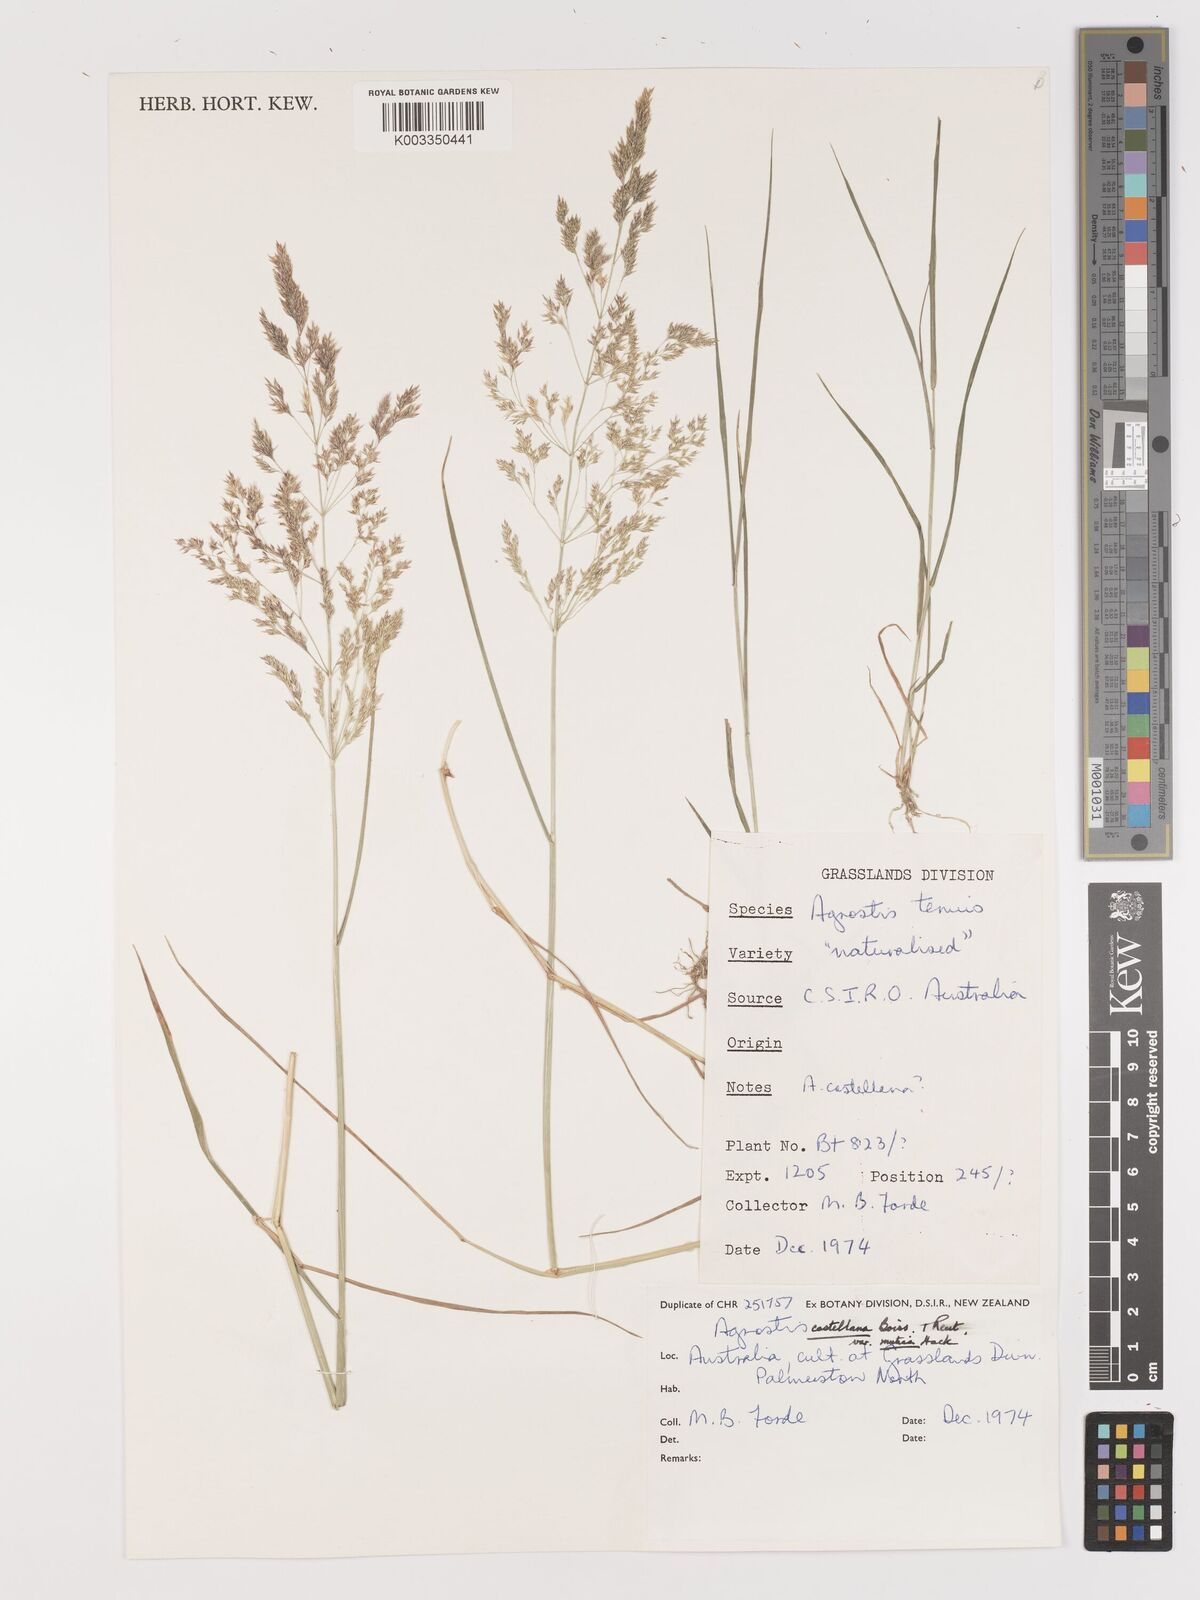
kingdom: Plantae
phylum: Tracheophyta
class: Liliopsida
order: Poales
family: Poaceae
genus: Agrostis
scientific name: Agrostis castellana
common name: Highland bent
